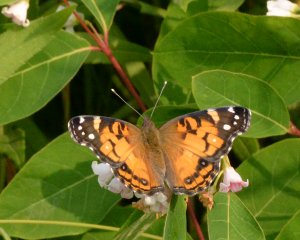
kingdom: Animalia
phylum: Arthropoda
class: Insecta
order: Lepidoptera
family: Nymphalidae
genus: Vanessa
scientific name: Vanessa virginiensis
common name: American Lady
